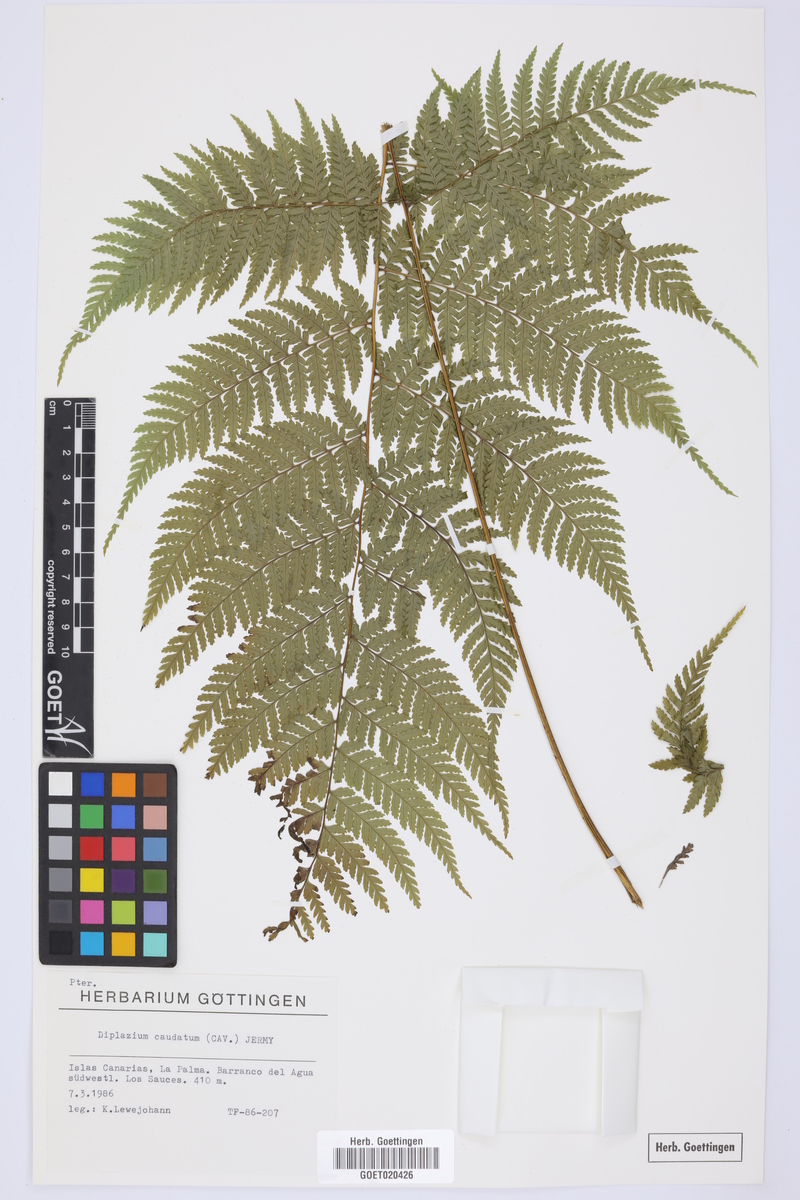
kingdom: Plantae
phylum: Tracheophyta
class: Polypodiopsida
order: Polypodiales
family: Athyriaceae
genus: Diplazium
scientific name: Diplazium caudatum
